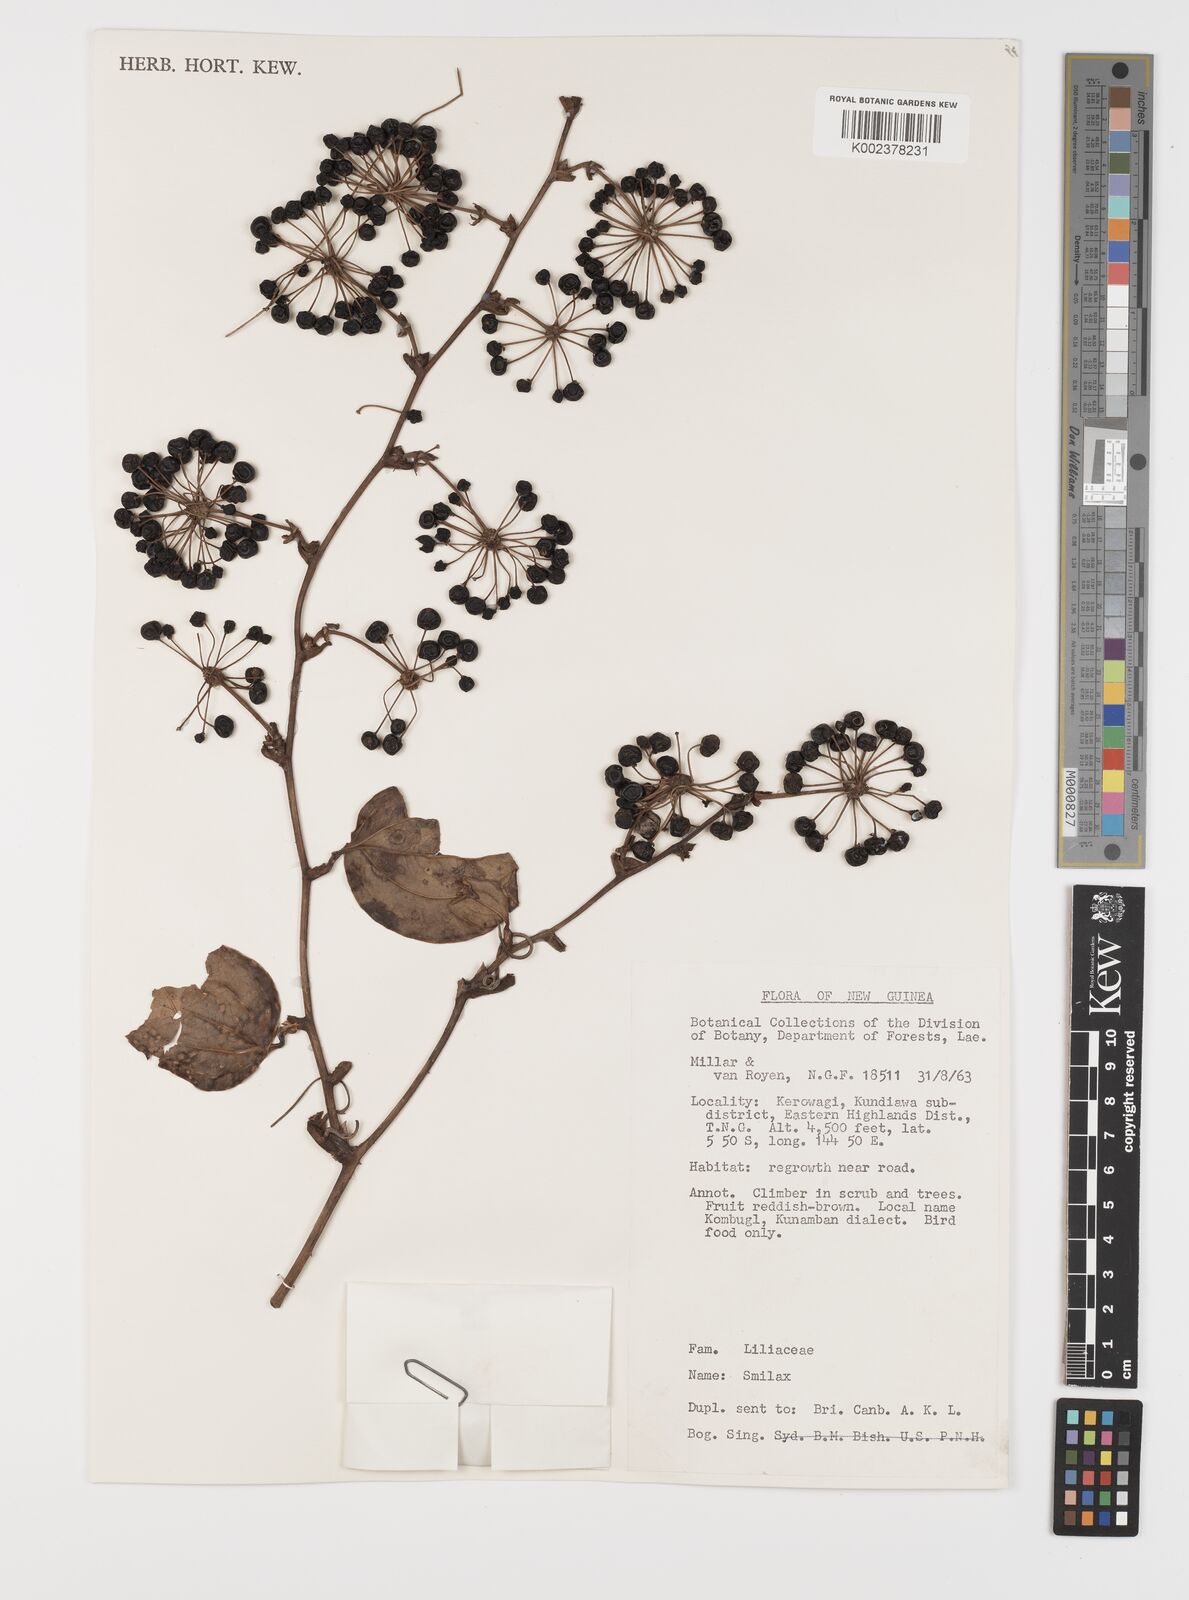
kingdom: Plantae
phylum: Tracheophyta
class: Liliopsida
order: Liliales
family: Smilacaceae
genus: Smilax
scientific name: Smilax
